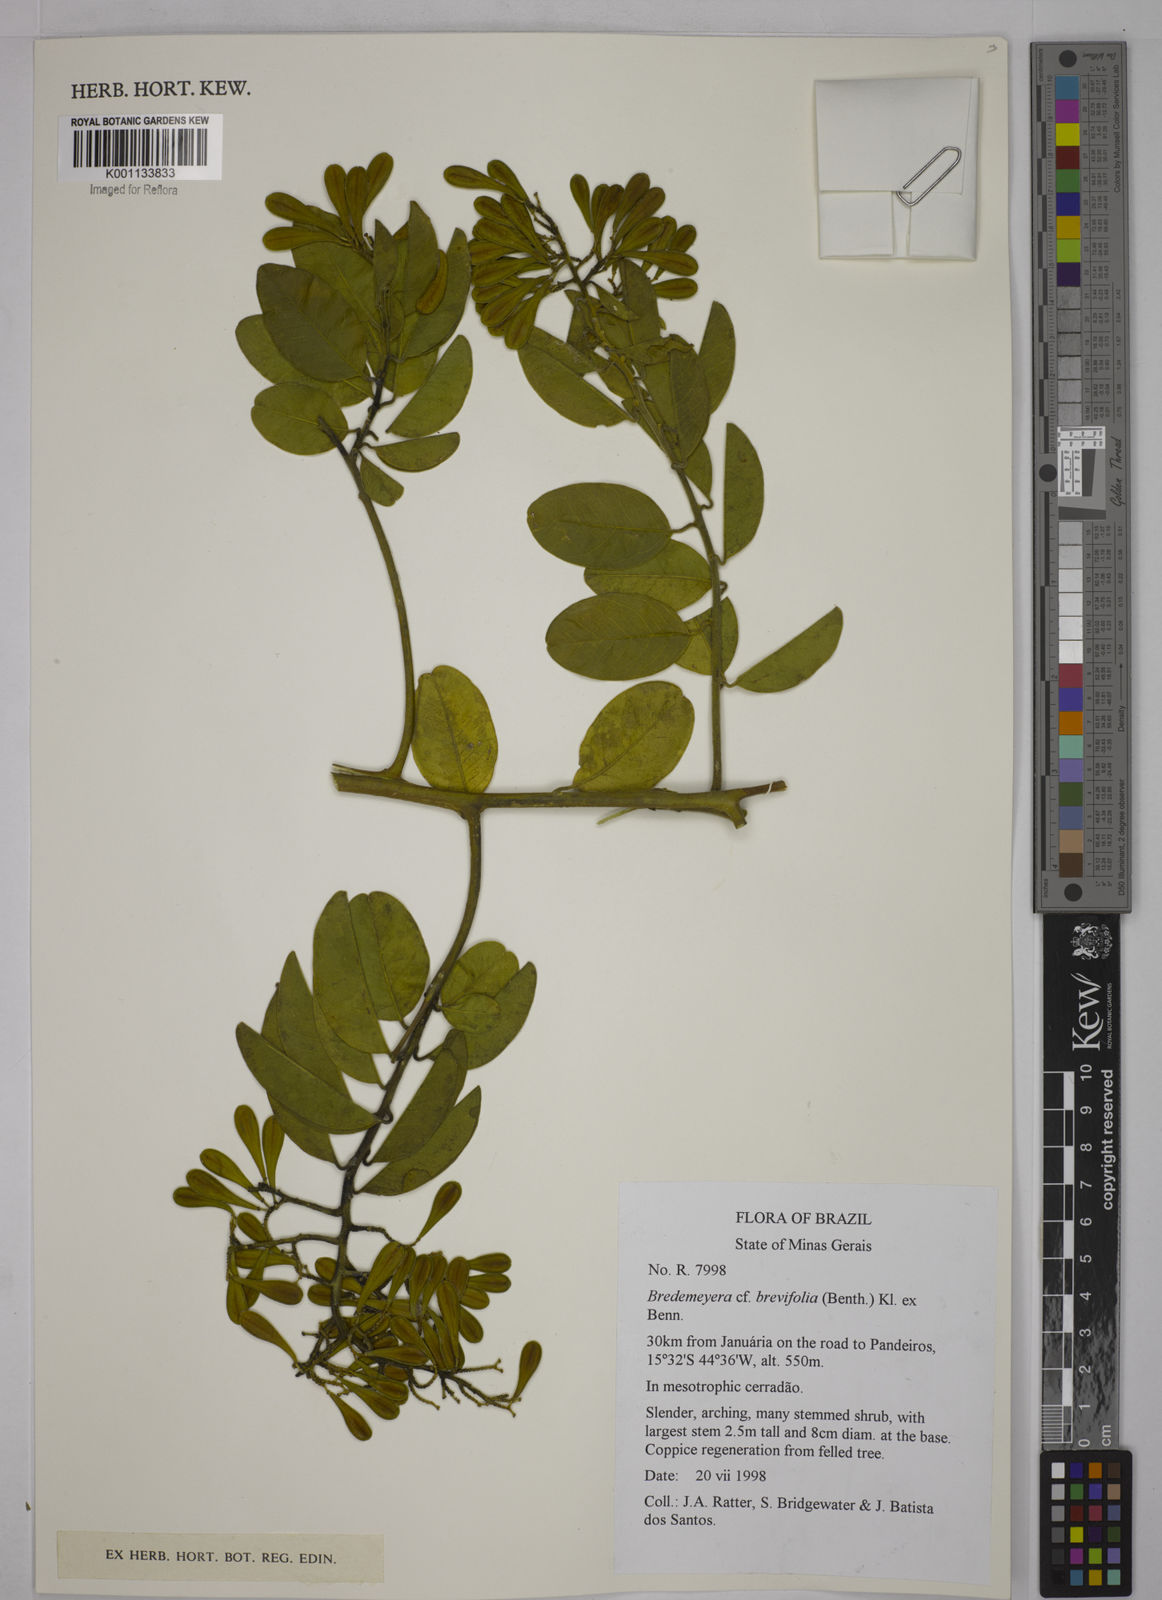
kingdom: Plantae
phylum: Tracheophyta
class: Magnoliopsida
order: Fabales
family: Polygalaceae
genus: Bredemeyera
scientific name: Bredemeyera brevifolia
